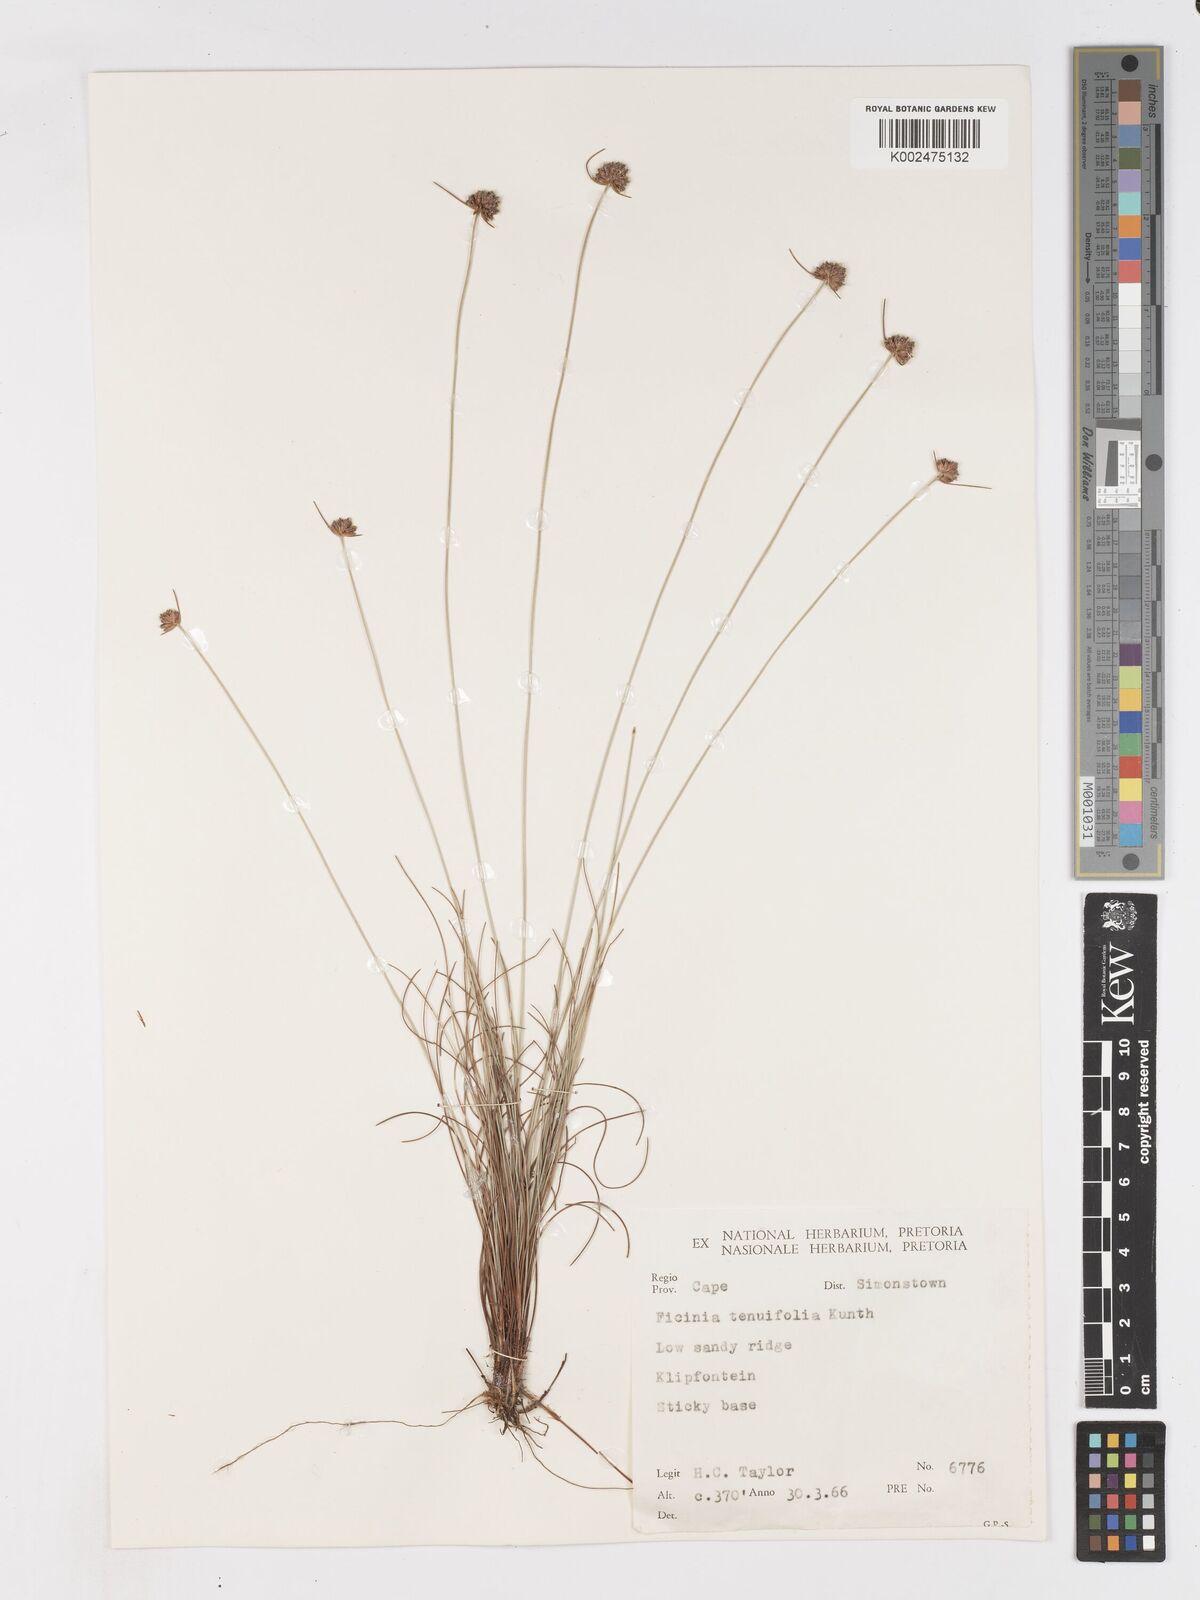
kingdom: Plantae
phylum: Tracheophyta
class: Liliopsida
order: Poales
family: Cyperaceae
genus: Ficinia
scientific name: Ficinia filiformis
